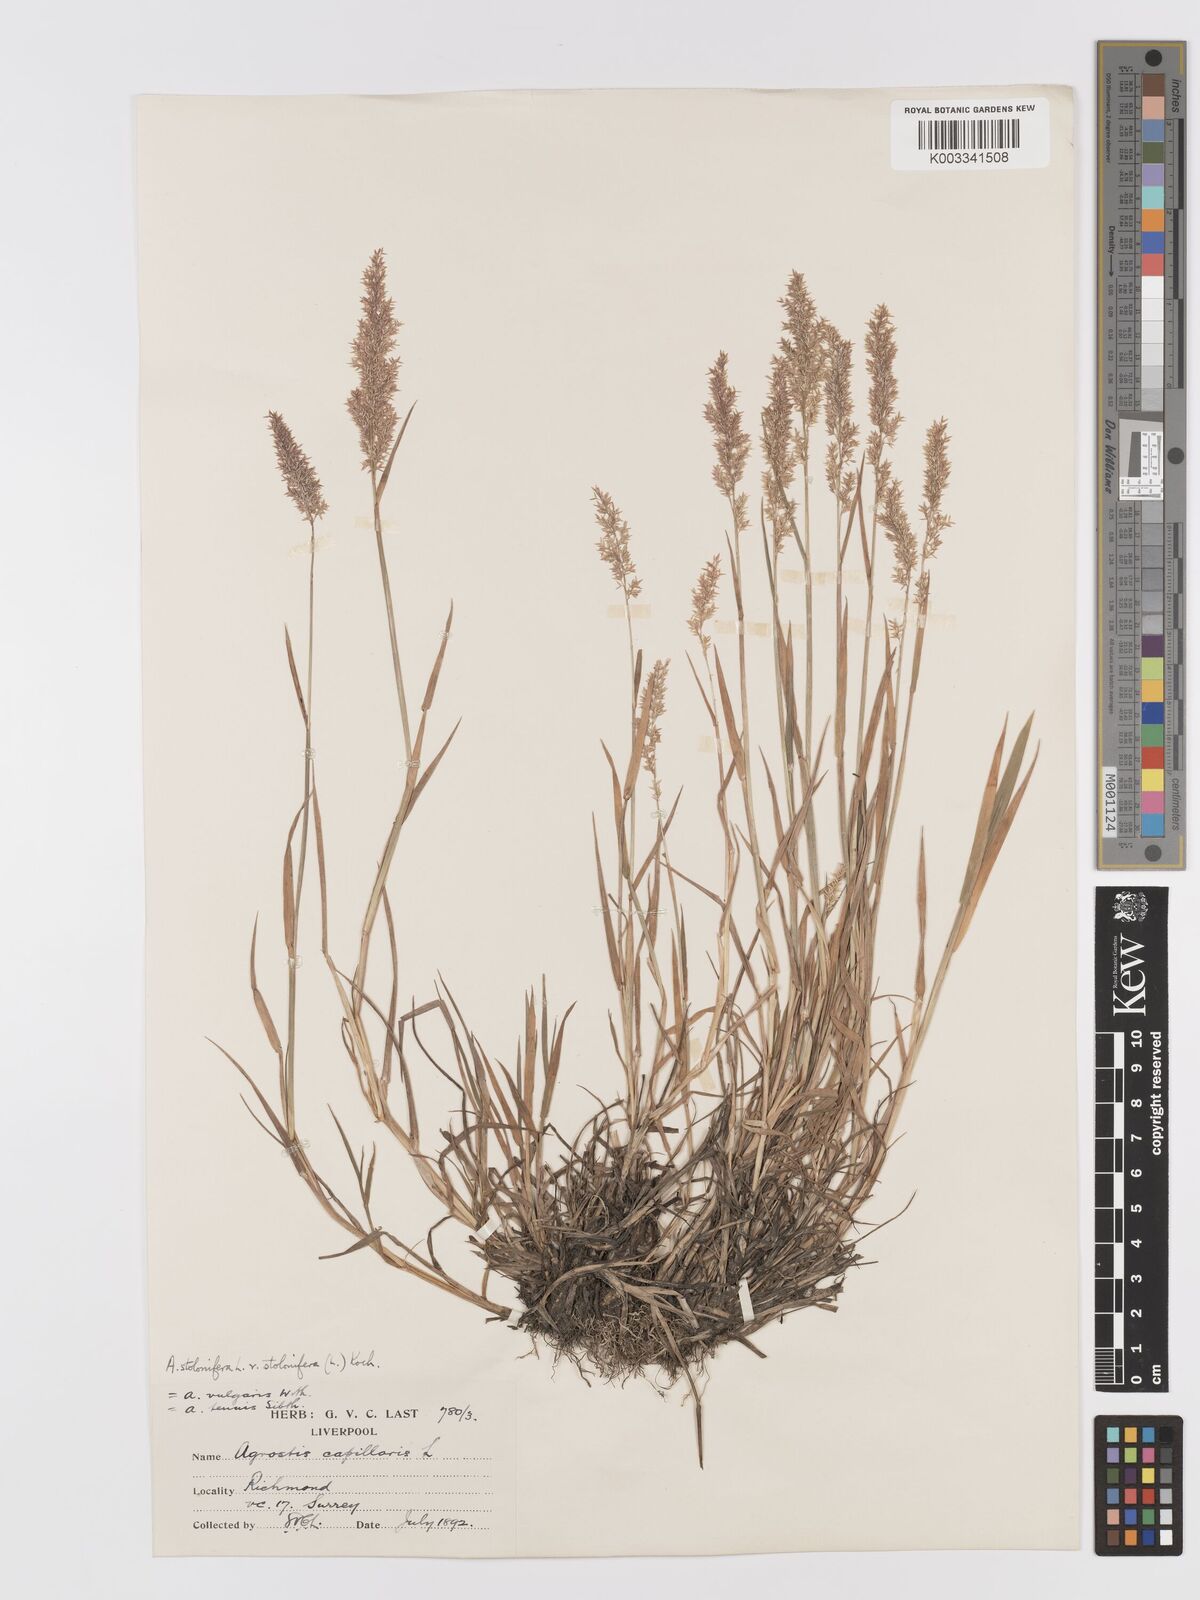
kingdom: Plantae
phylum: Tracheophyta
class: Liliopsida
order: Poales
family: Poaceae
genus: Agrostis
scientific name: Agrostis stolonifera
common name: Creeping bentgrass
